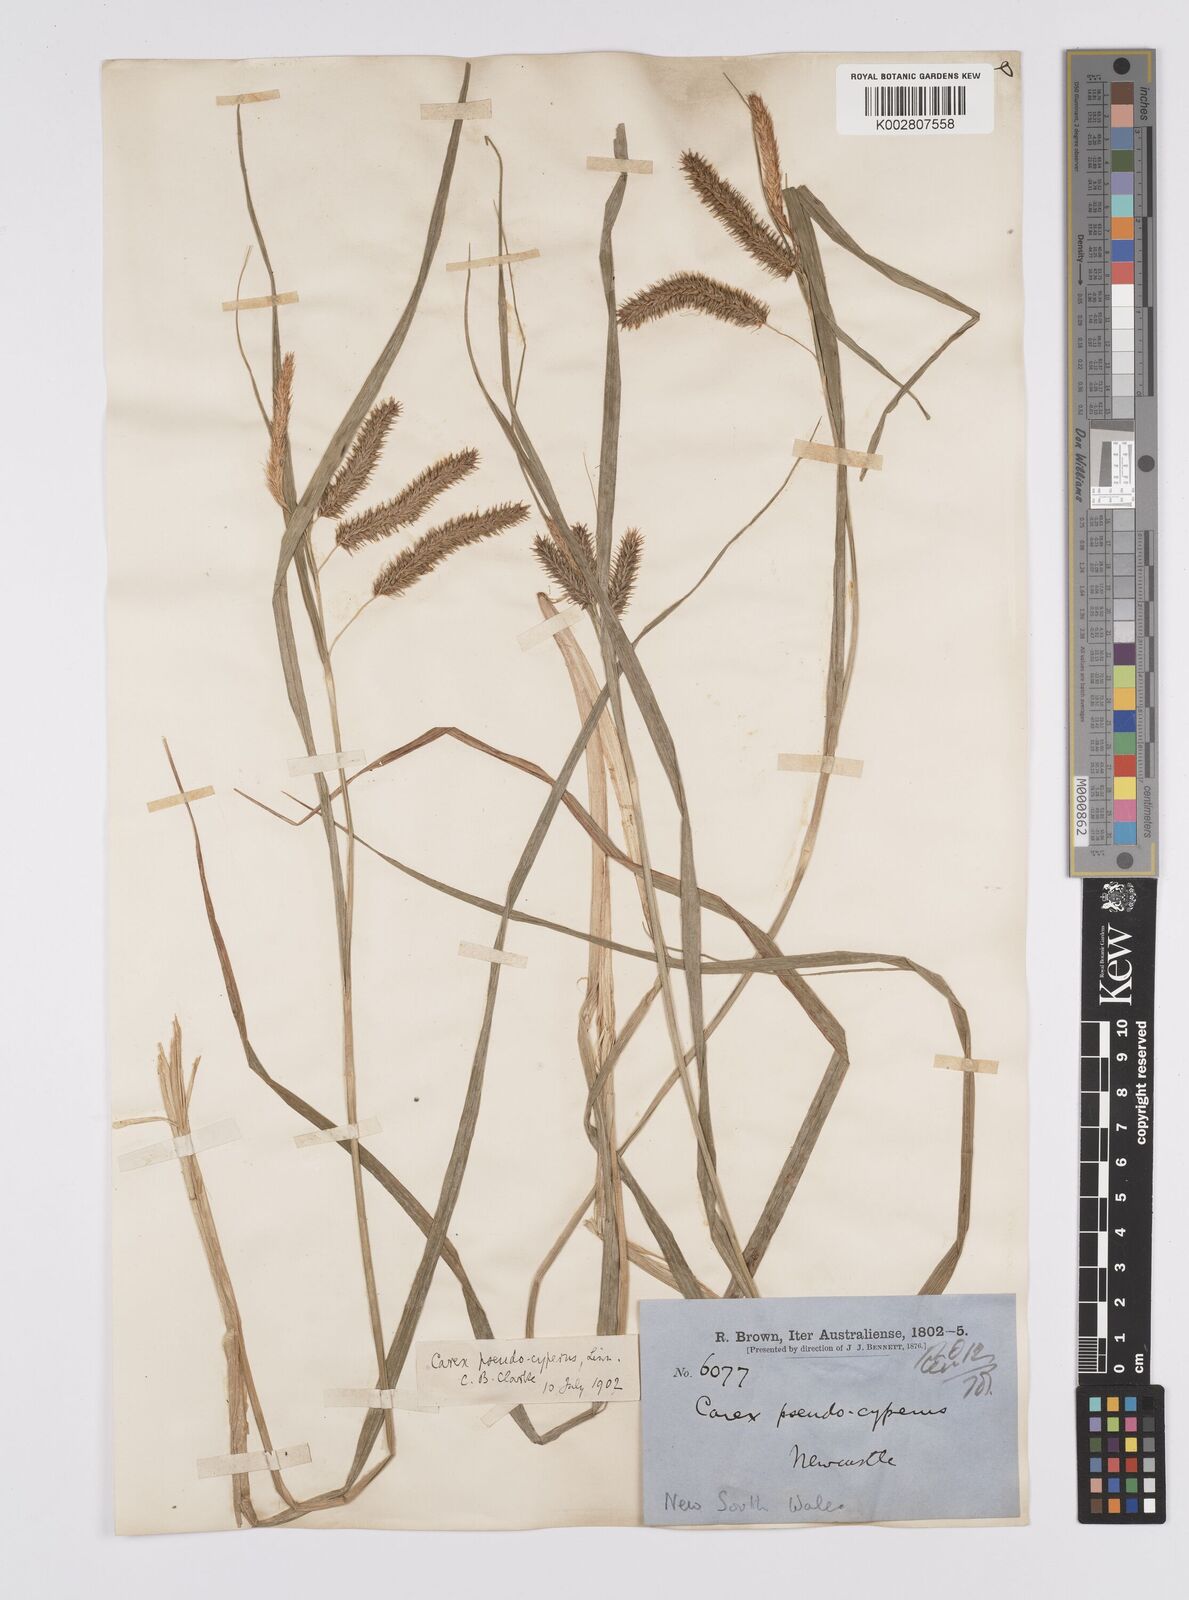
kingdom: Plantae
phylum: Tracheophyta
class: Liliopsida
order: Poales
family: Cyperaceae
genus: Carex
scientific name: Carex fascicularis
